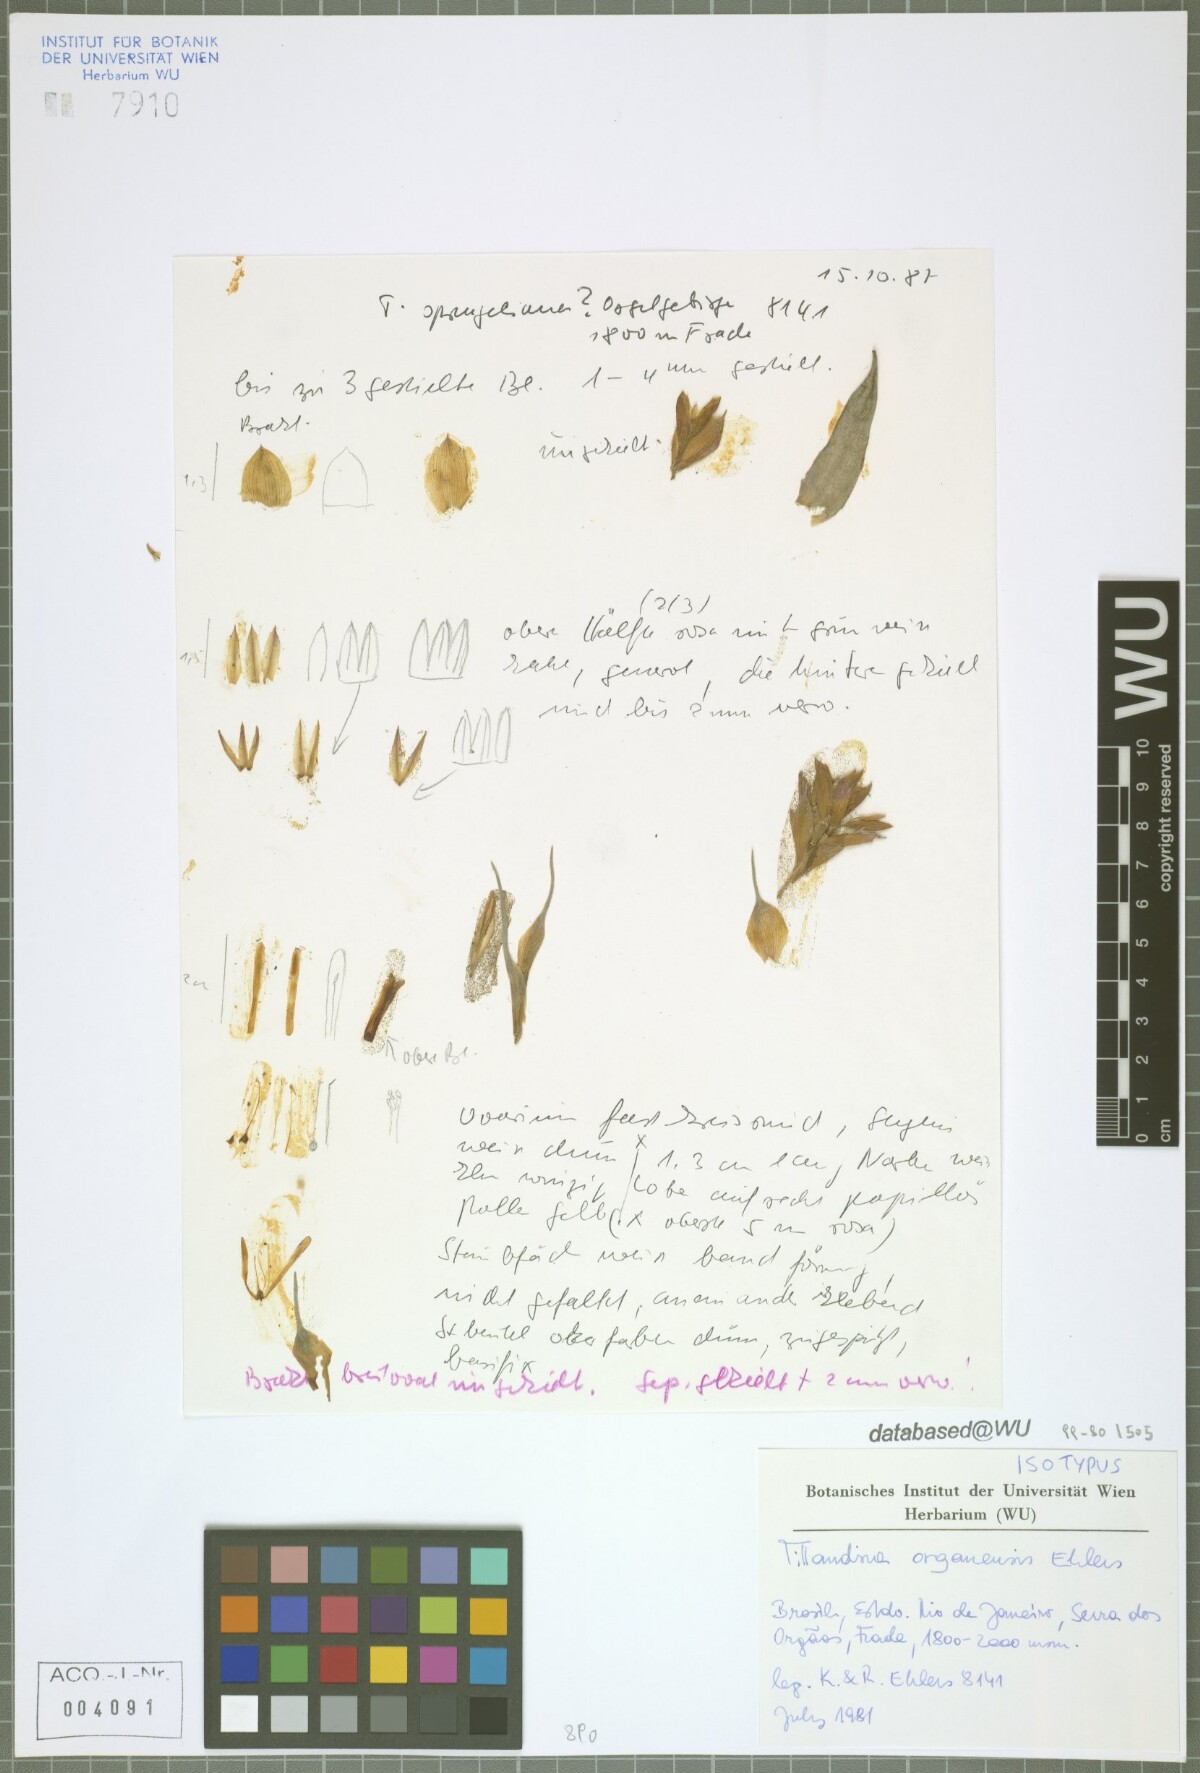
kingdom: Plantae
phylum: Tracheophyta
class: Liliopsida
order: Poales
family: Bromeliaceae
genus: Tillandsia
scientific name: Tillandsia organensis
